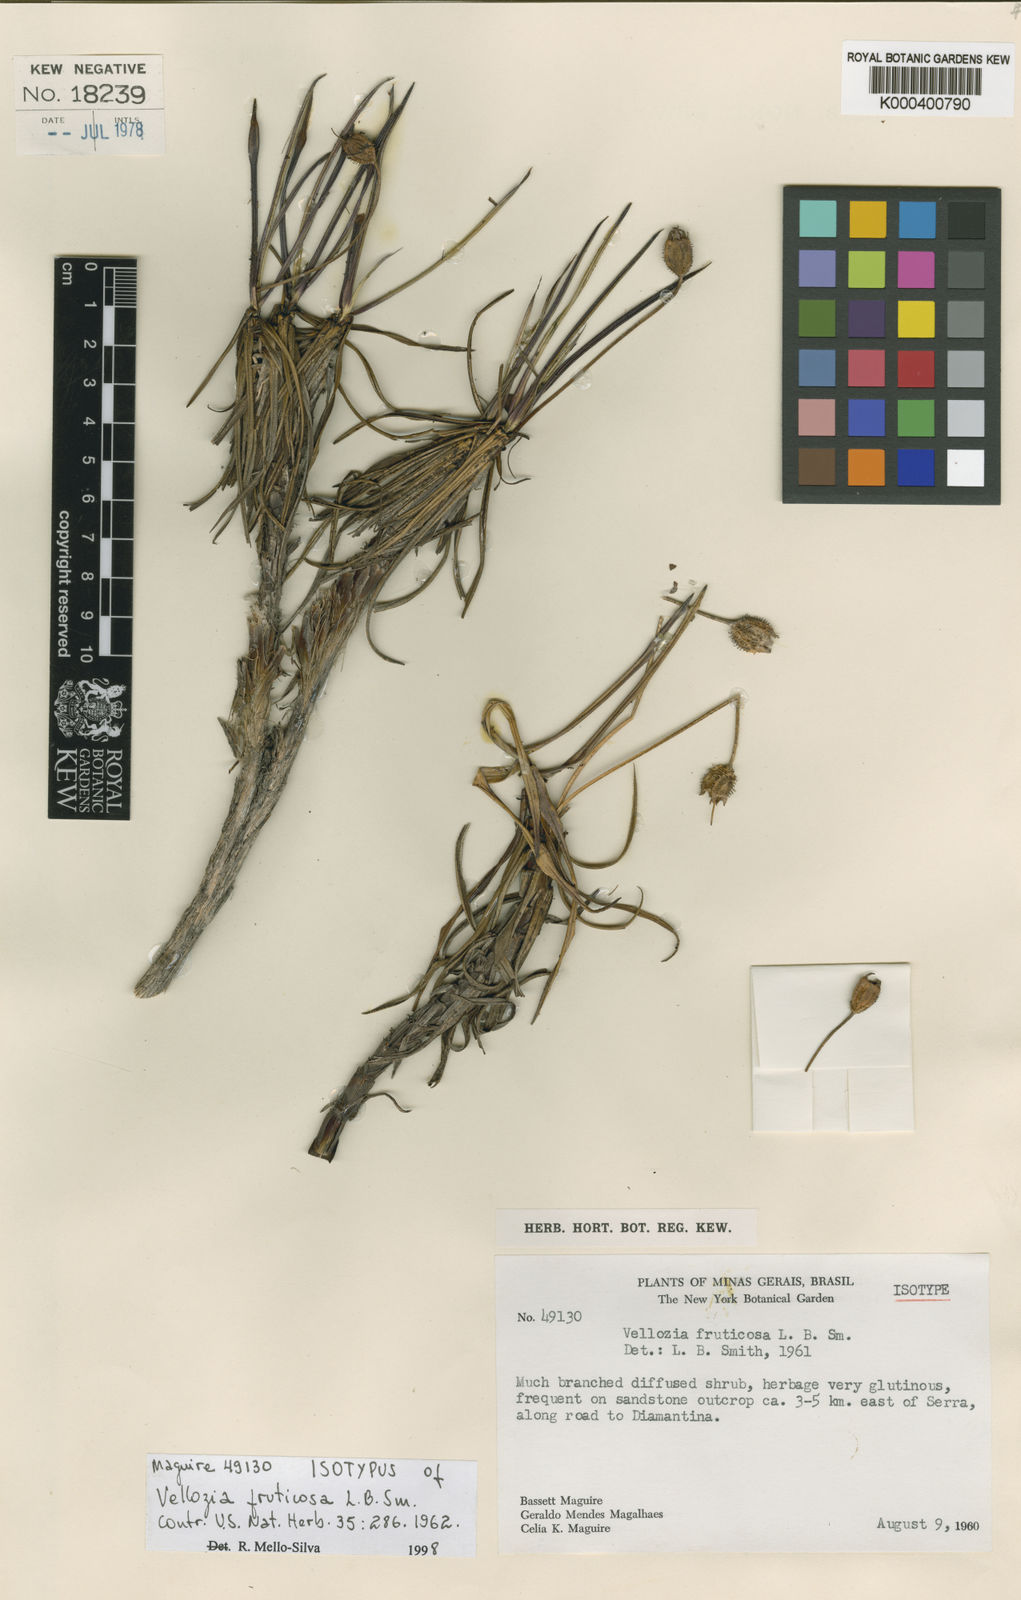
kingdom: Plantae
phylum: Tracheophyta
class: Liliopsida
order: Pandanales
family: Velloziaceae
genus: Vellozia
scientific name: Vellozia fruticosa
